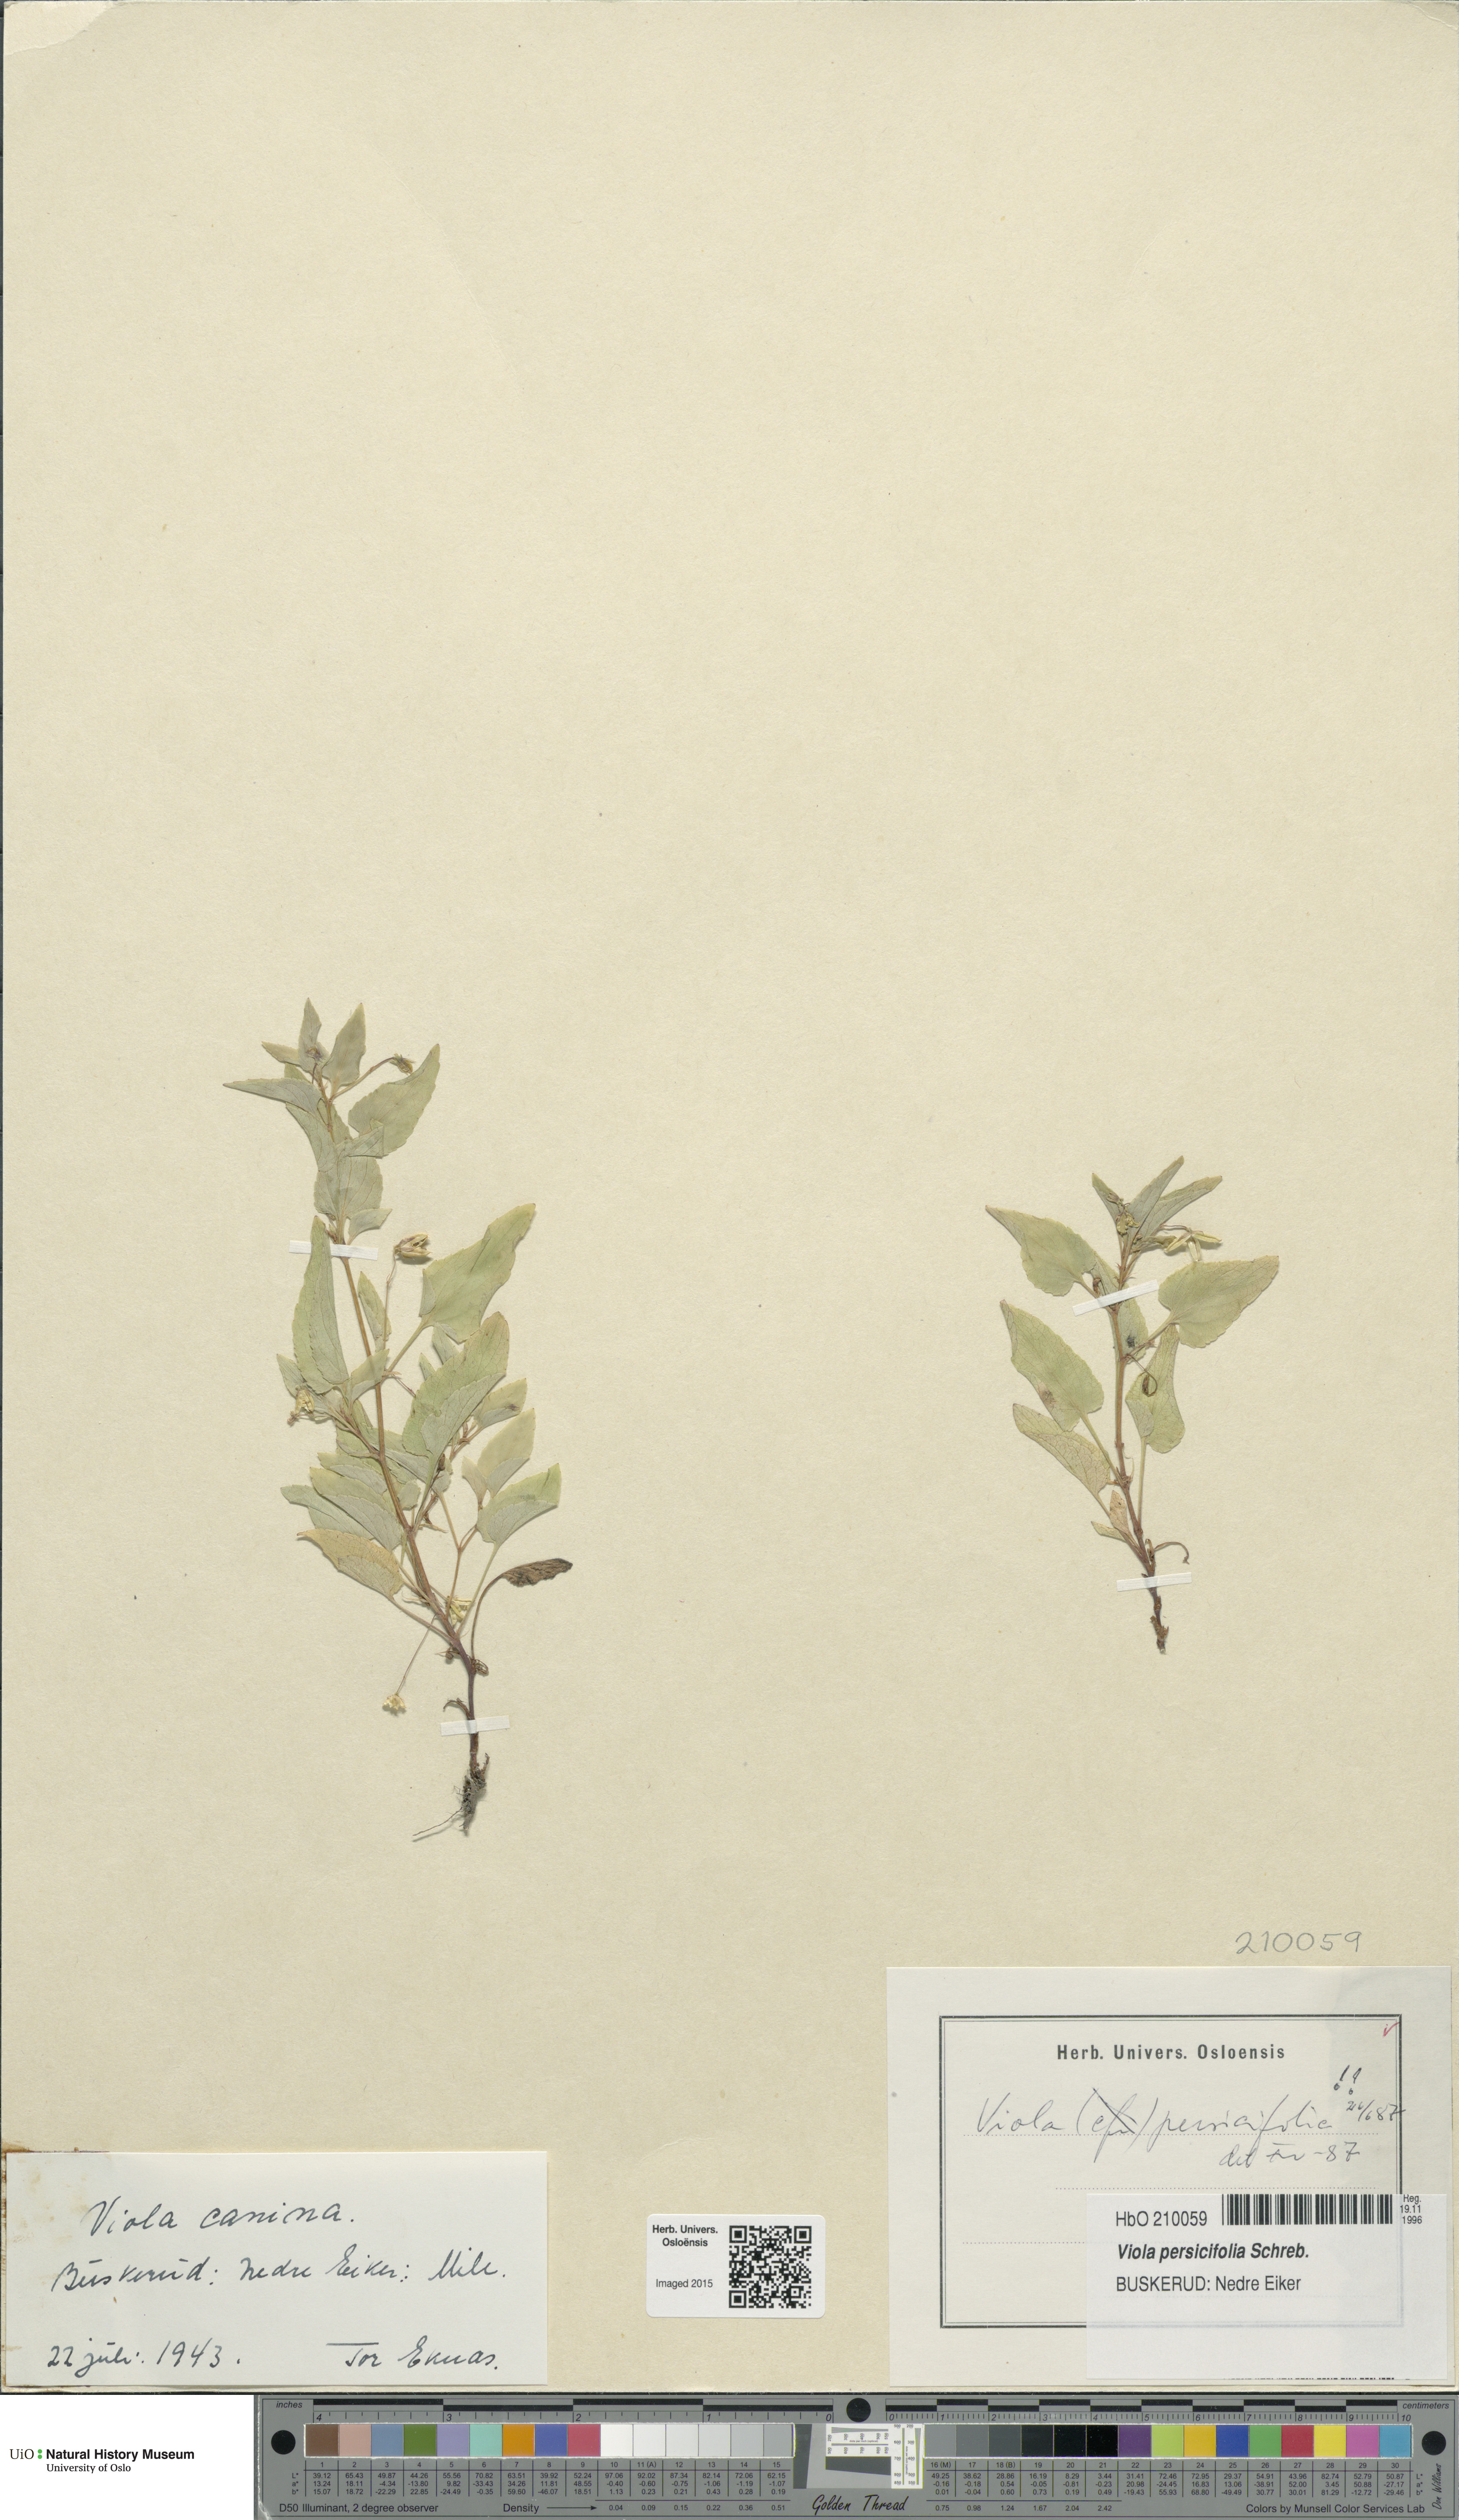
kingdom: Plantae
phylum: Tracheophyta
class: Magnoliopsida
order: Malpighiales
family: Violaceae
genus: Viola
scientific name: Viola stagnina
